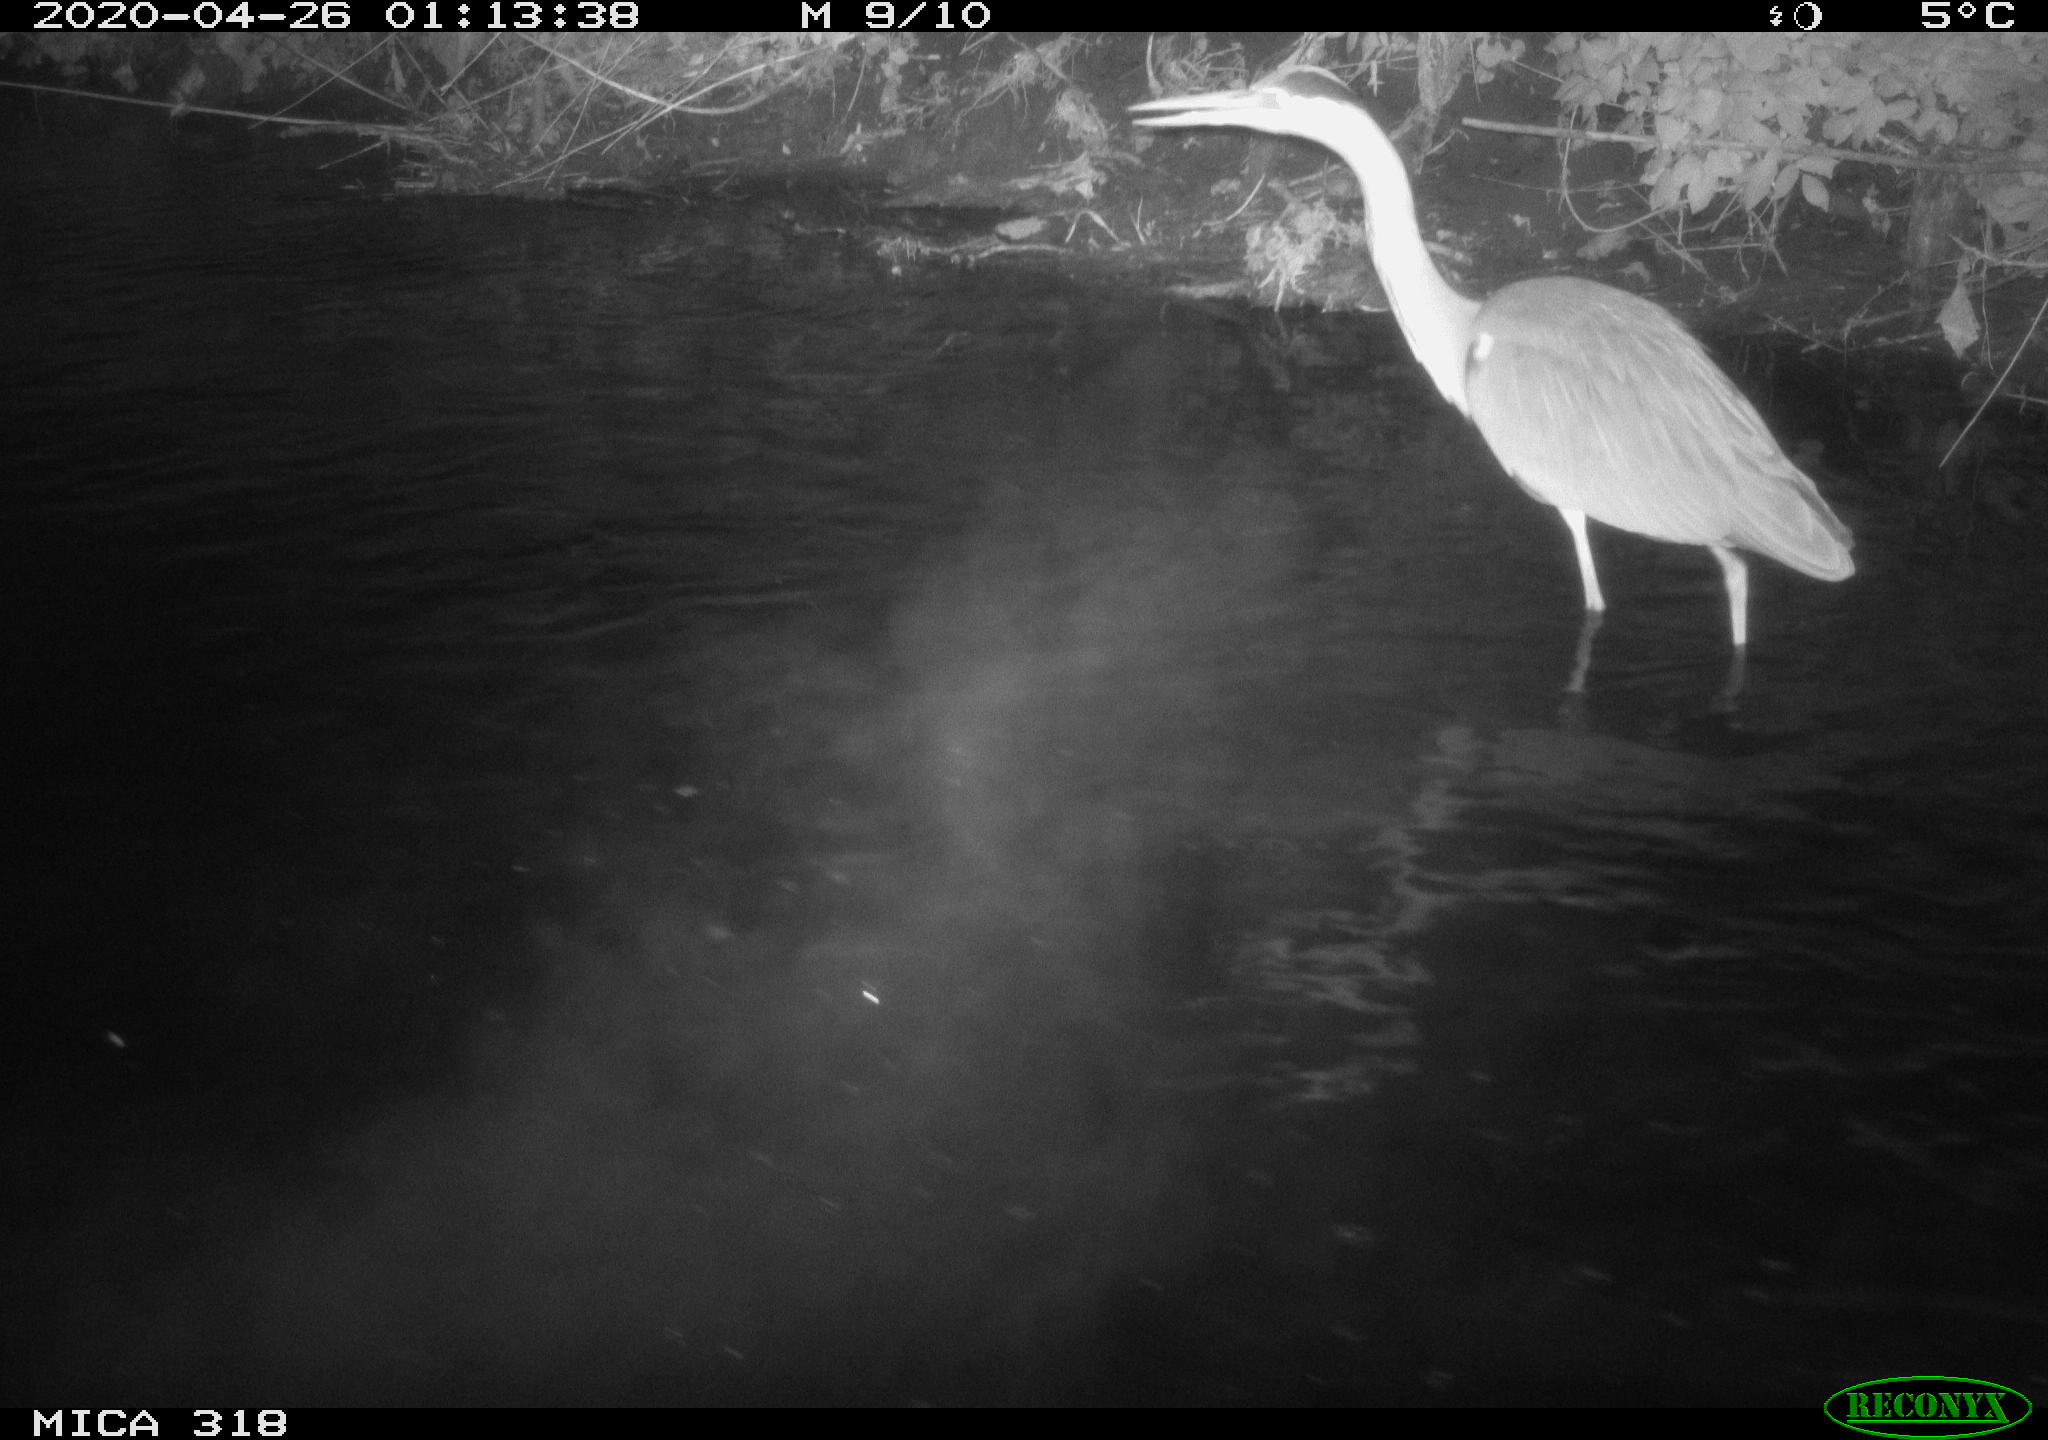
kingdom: Animalia
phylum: Chordata
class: Aves
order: Pelecaniformes
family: Ardeidae
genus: Ardea
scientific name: Ardea cinerea
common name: Grey heron
